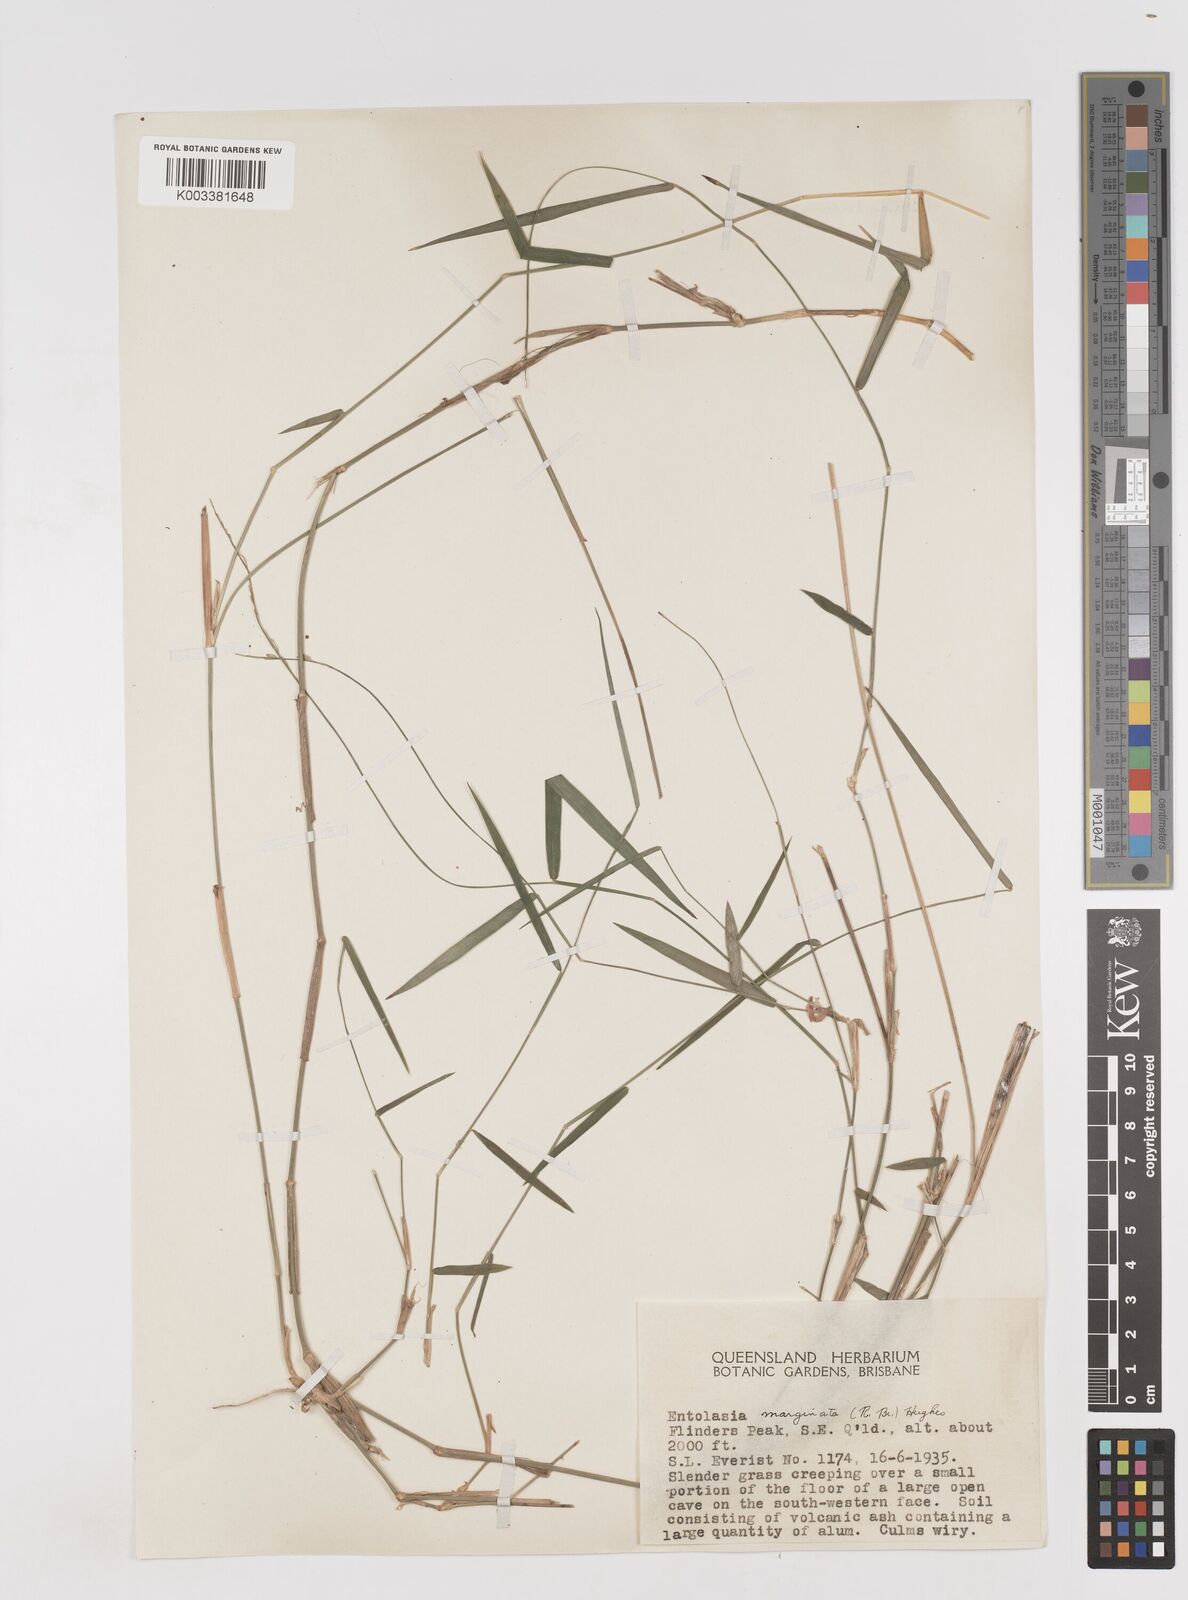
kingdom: Plantae
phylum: Tracheophyta
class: Liliopsida
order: Poales
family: Poaceae
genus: Entolasia
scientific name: Entolasia marginata
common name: Australian panicgrass
